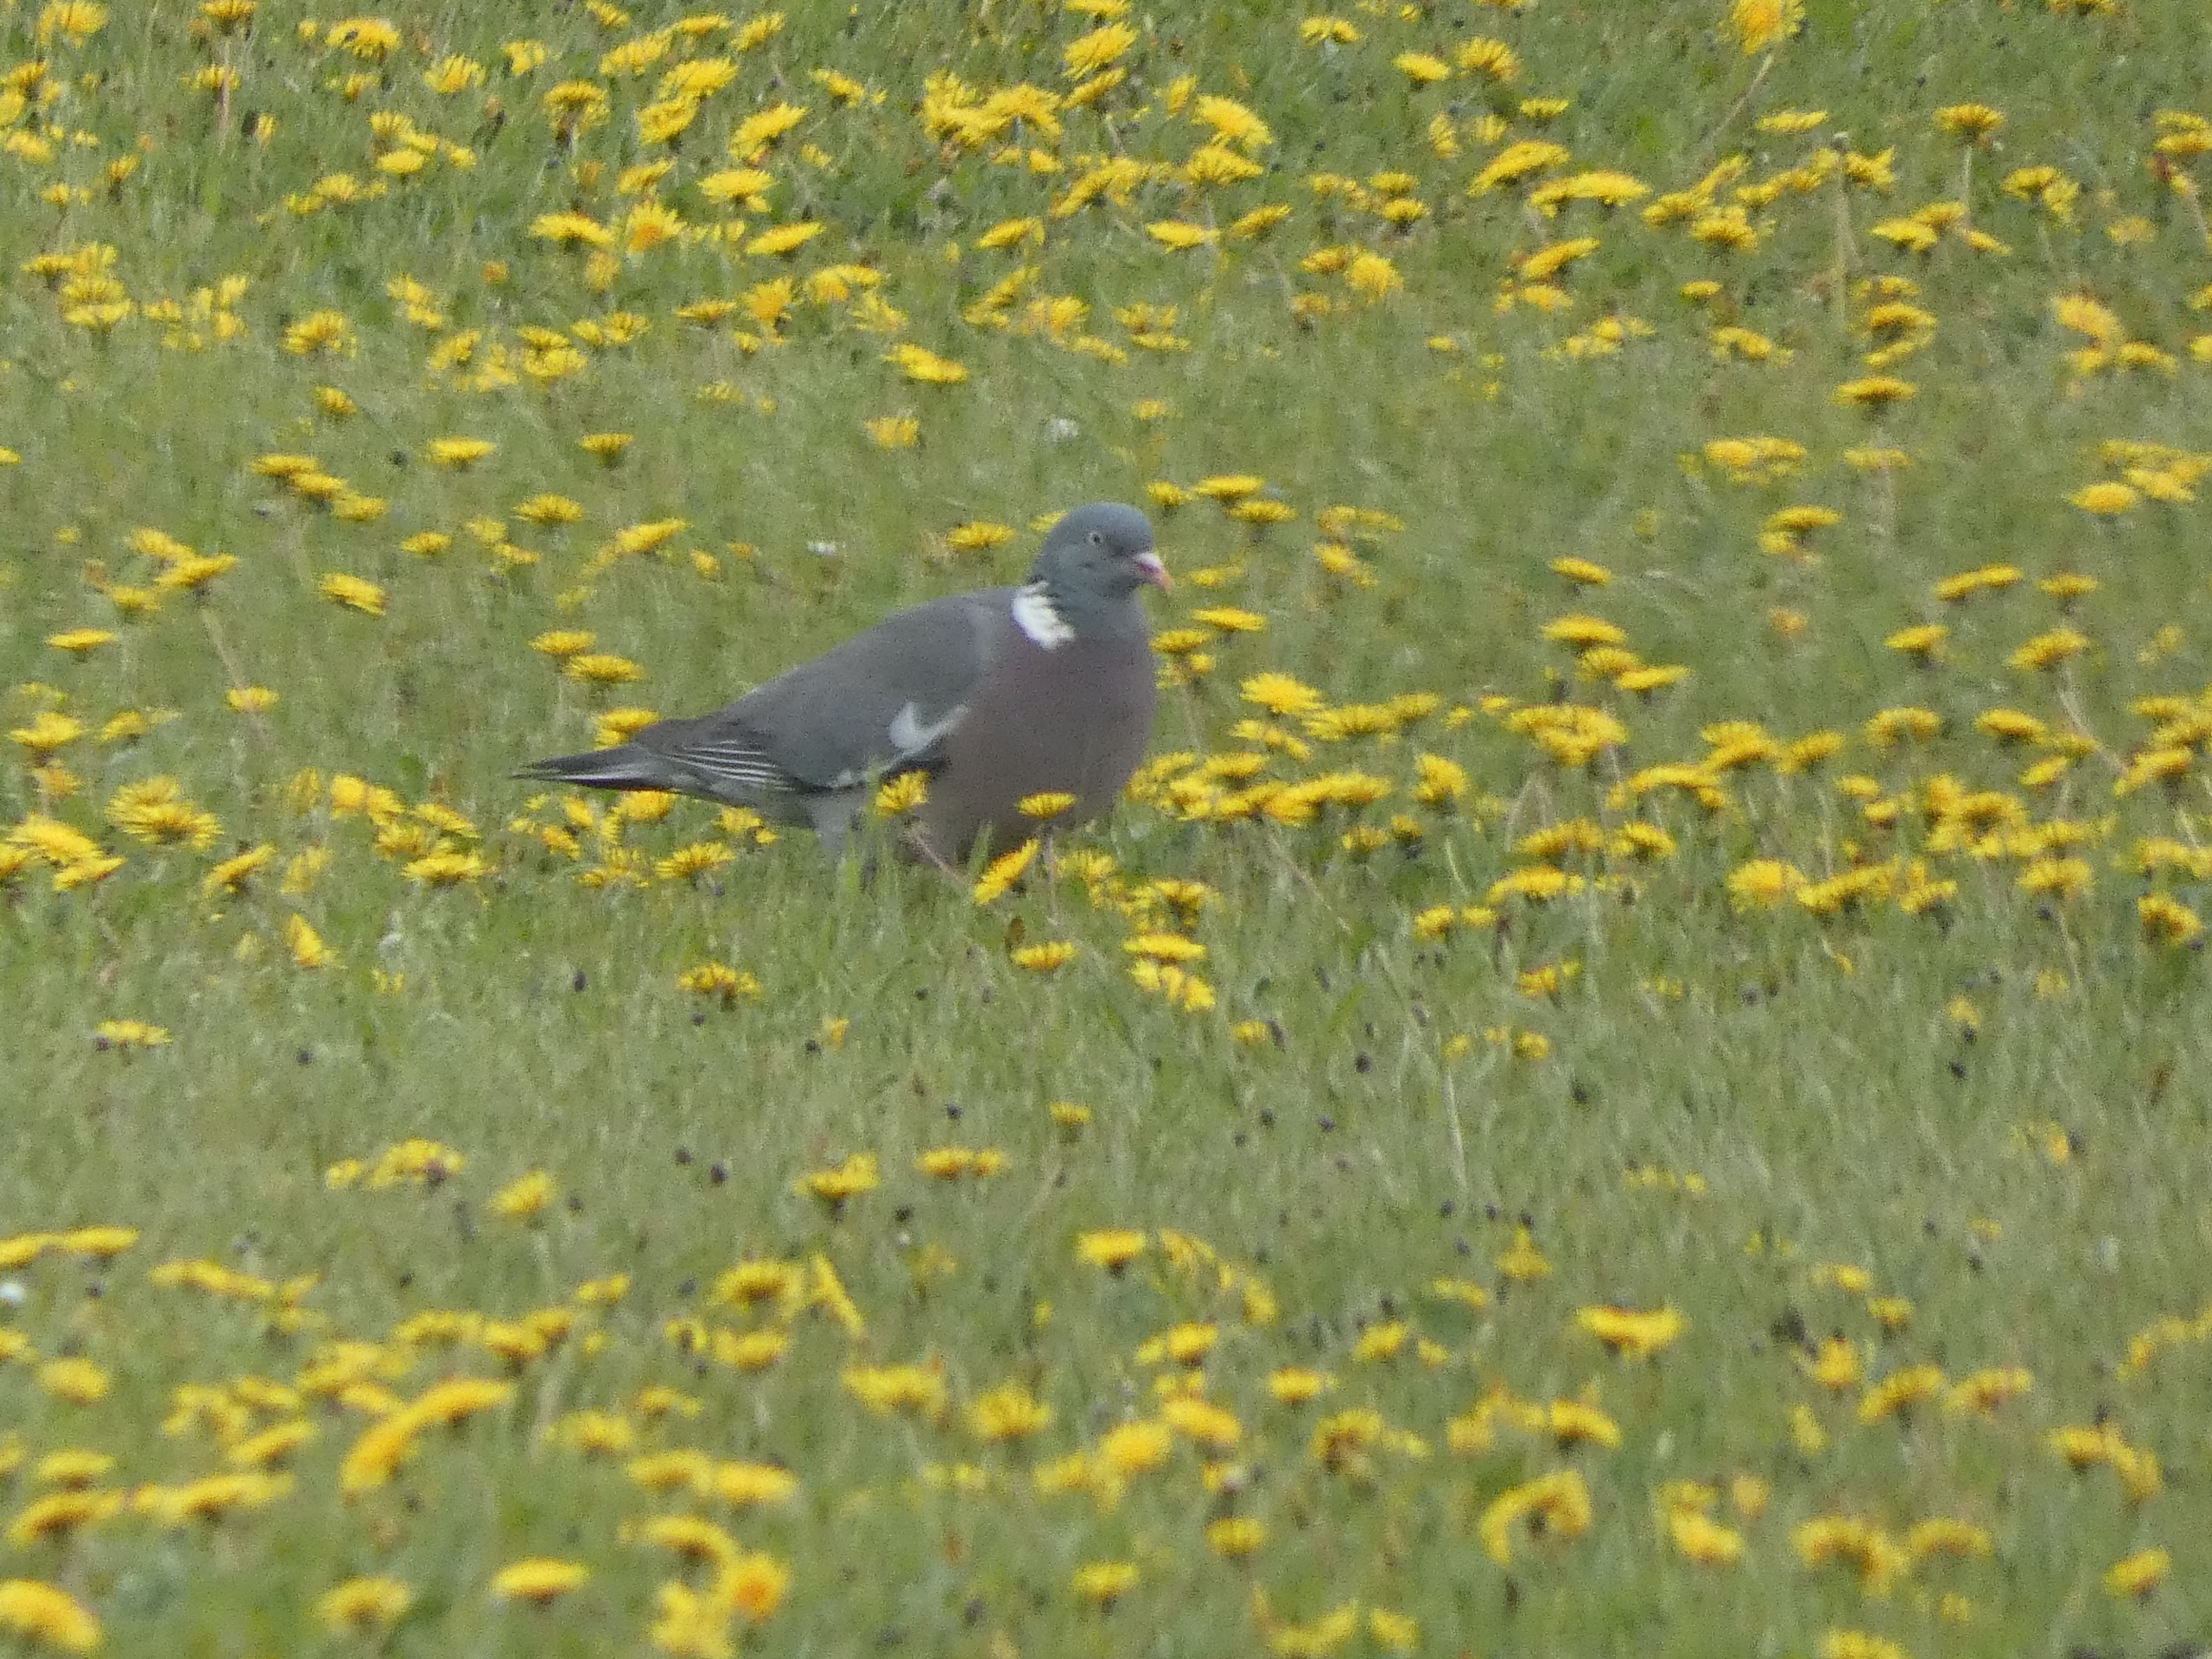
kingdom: Animalia
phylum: Chordata
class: Aves
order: Columbiformes
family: Columbidae
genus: Columba
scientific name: Columba palumbus
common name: Ringdue
